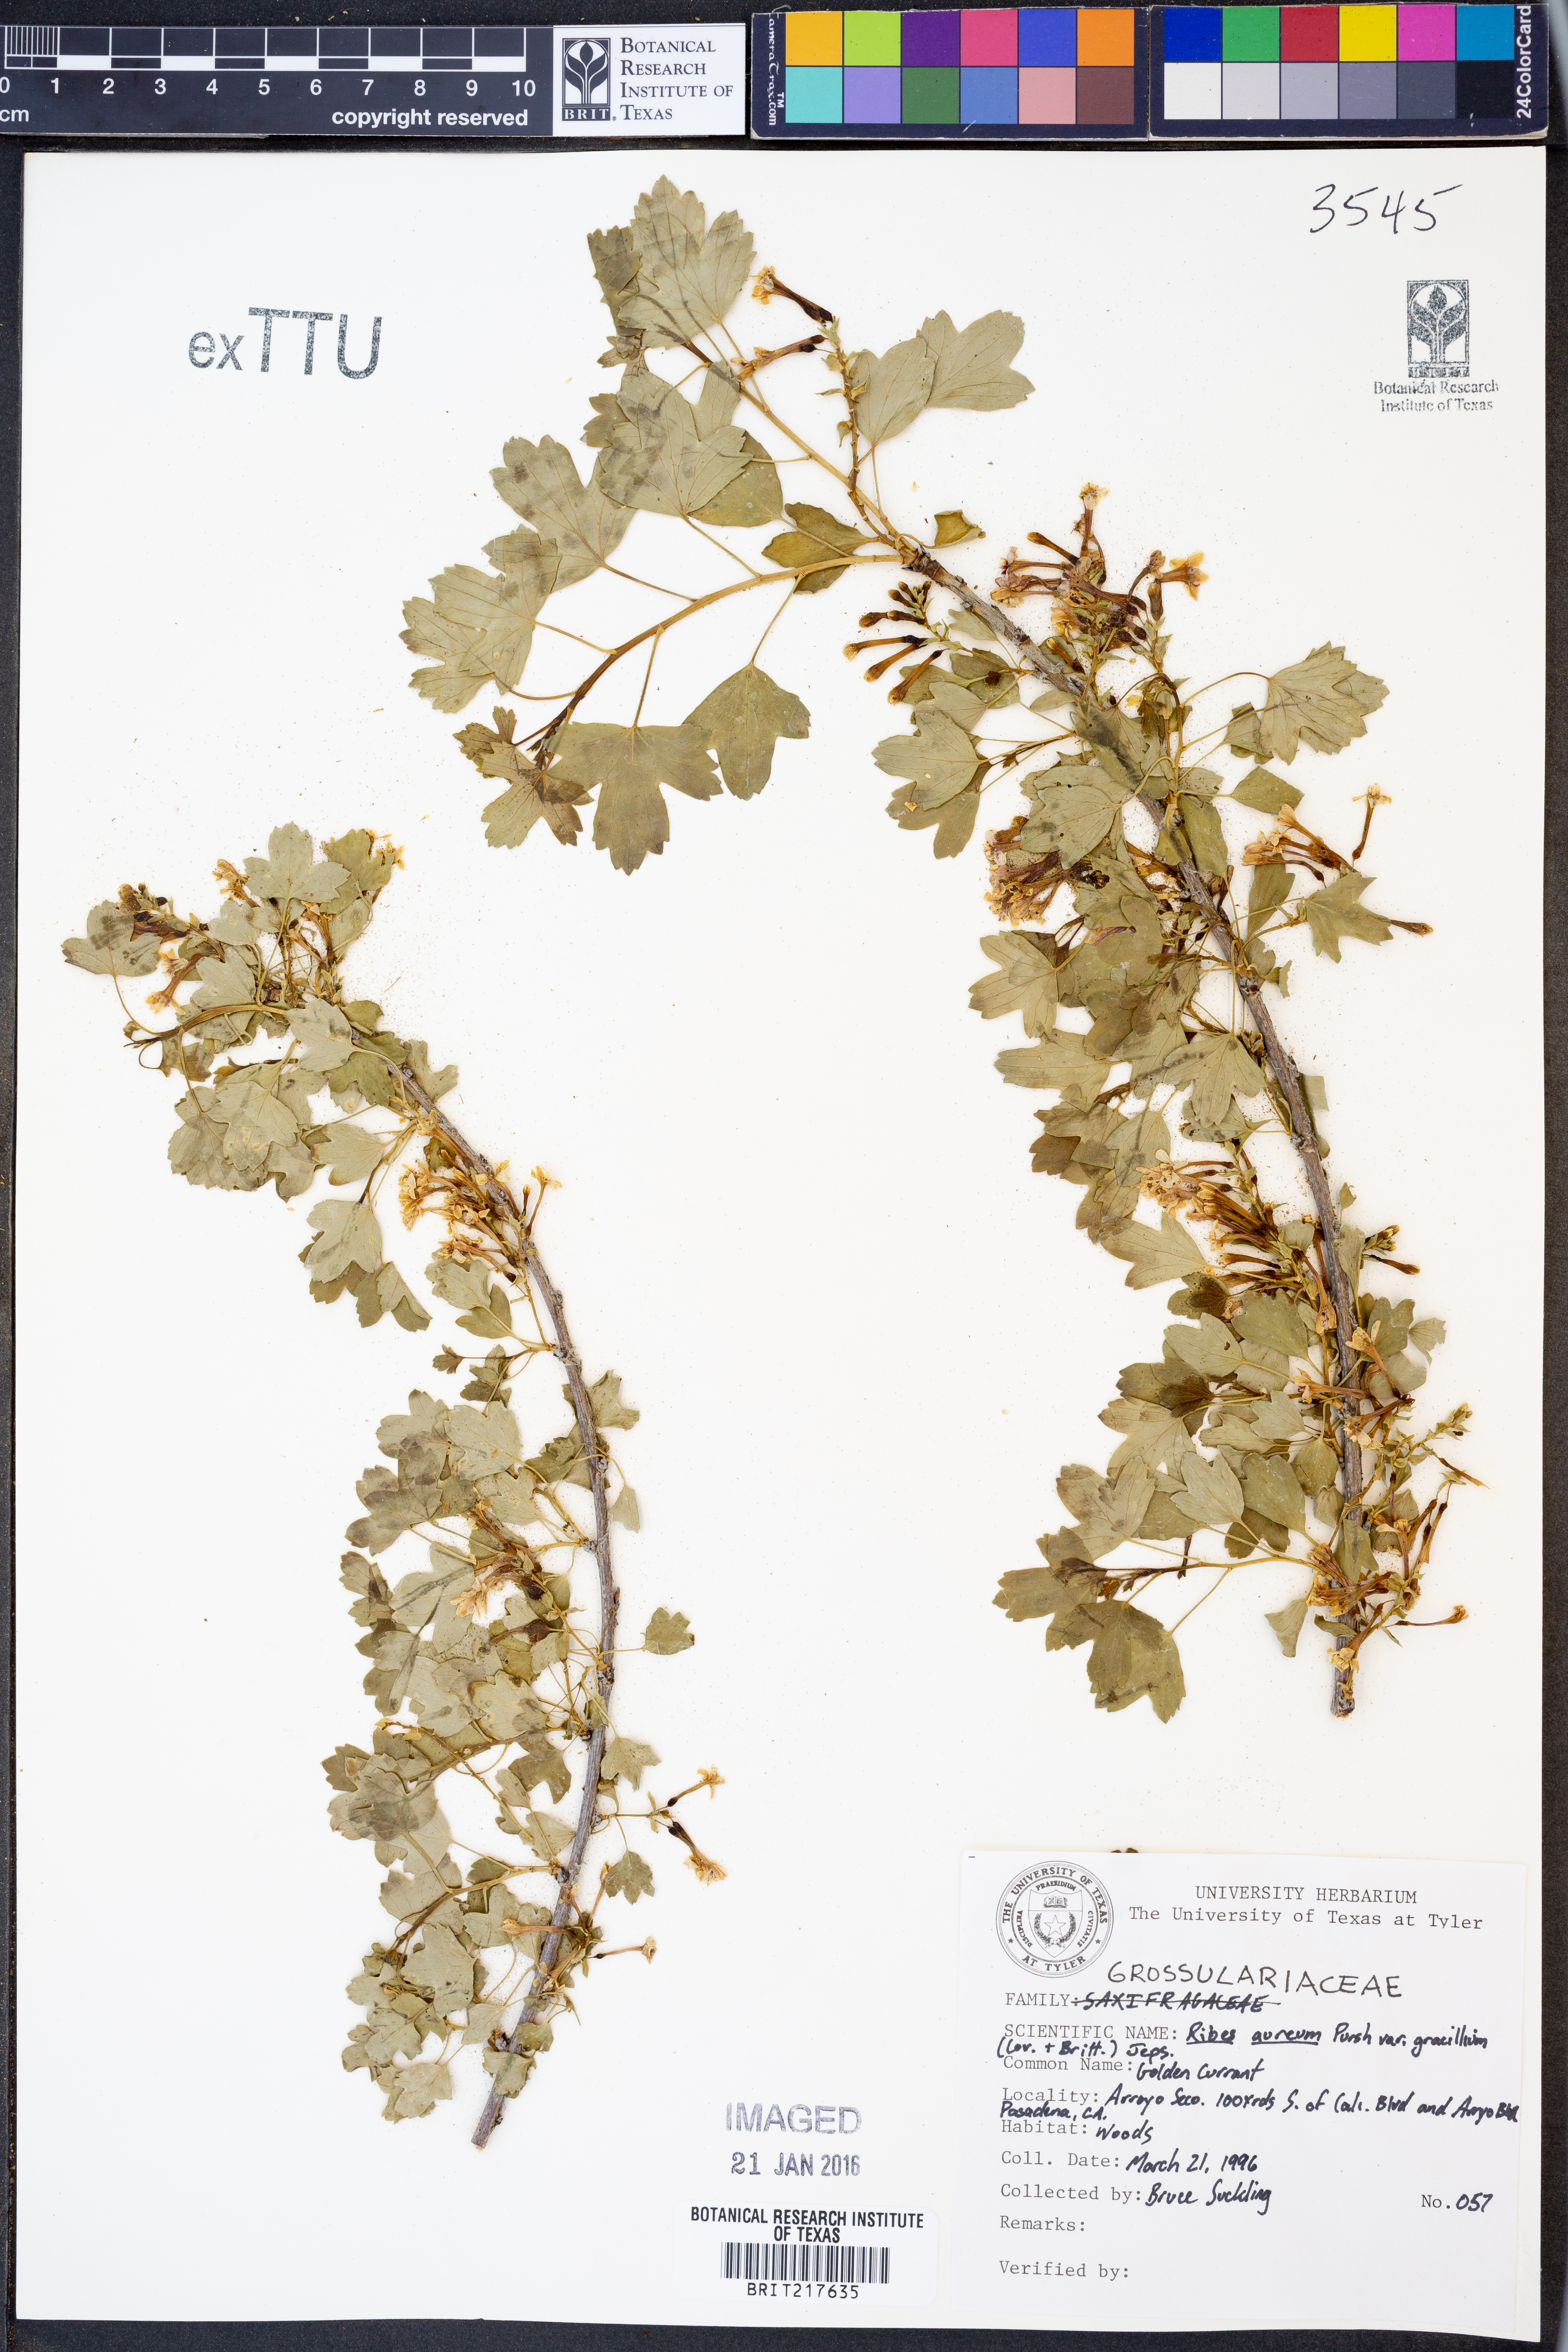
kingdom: Plantae
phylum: Tracheophyta
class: Magnoliopsida
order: Saxifragales
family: Grossulariaceae
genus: Ribes
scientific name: Ribes aureum
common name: Golden currant
